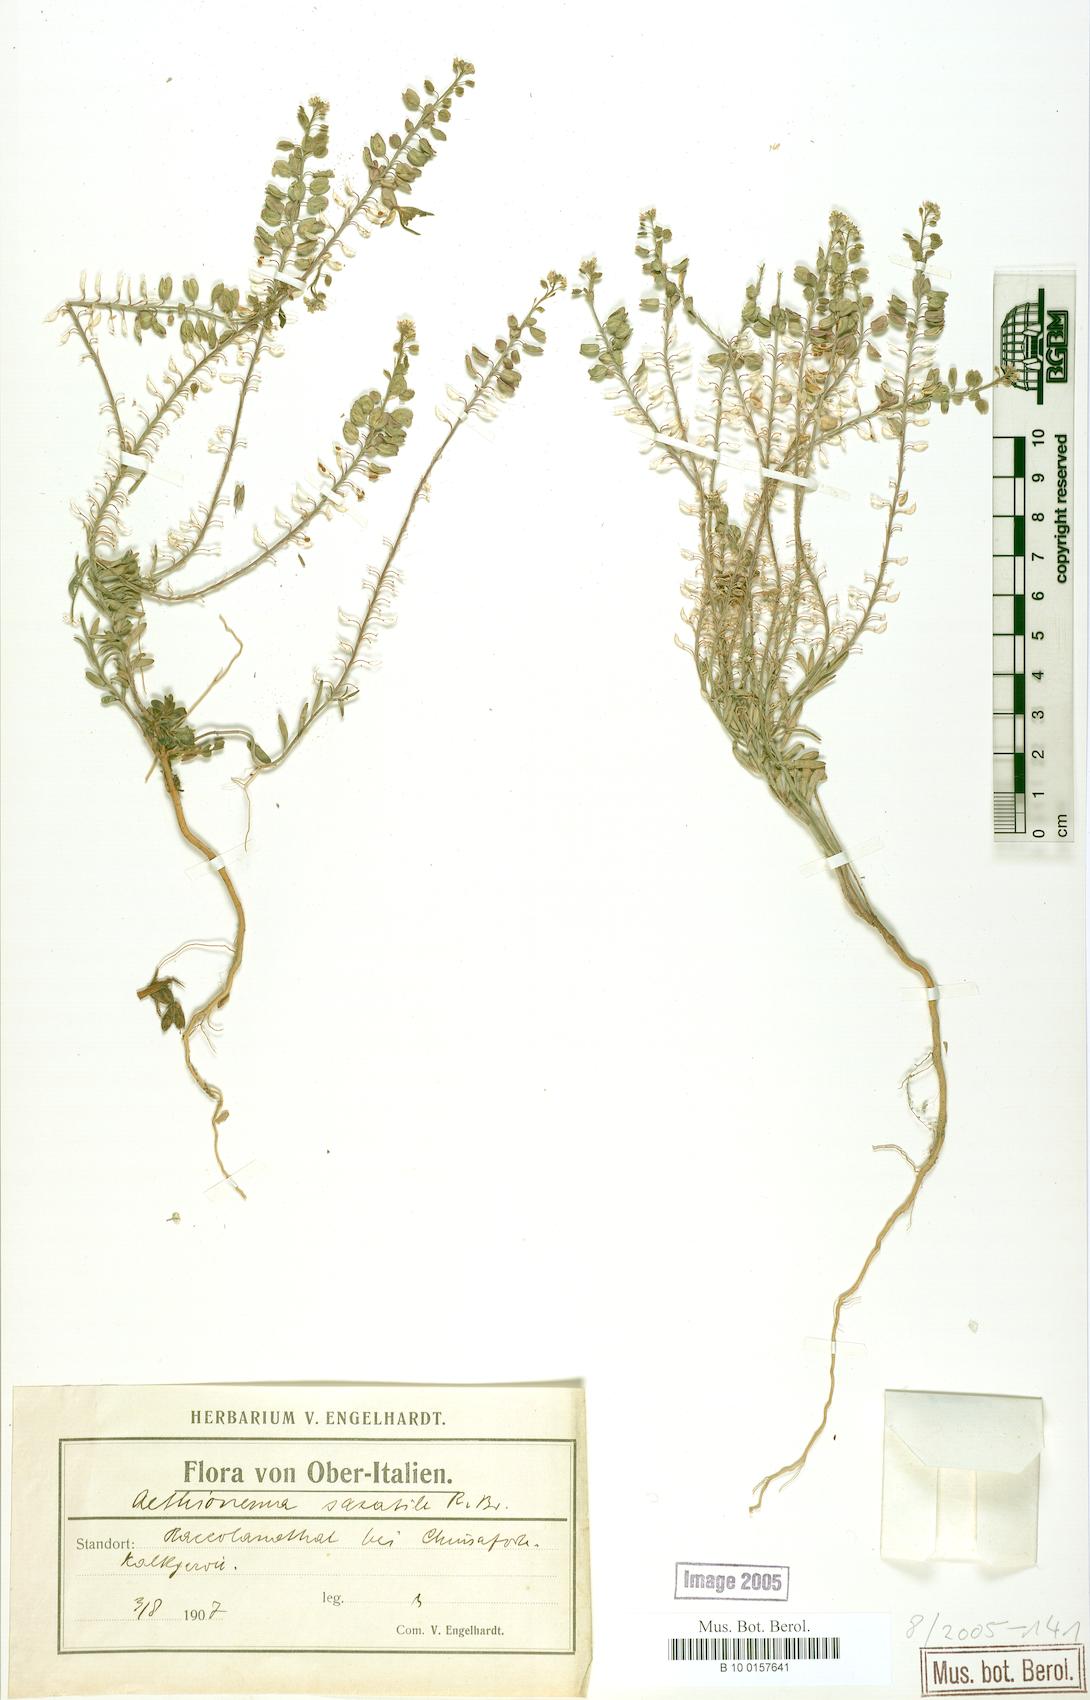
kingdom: Plantae
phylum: Tracheophyta
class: Magnoliopsida
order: Brassicales
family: Brassicaceae
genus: Aethionema
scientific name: Aethionema saxatile
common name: Burnt candytuft
